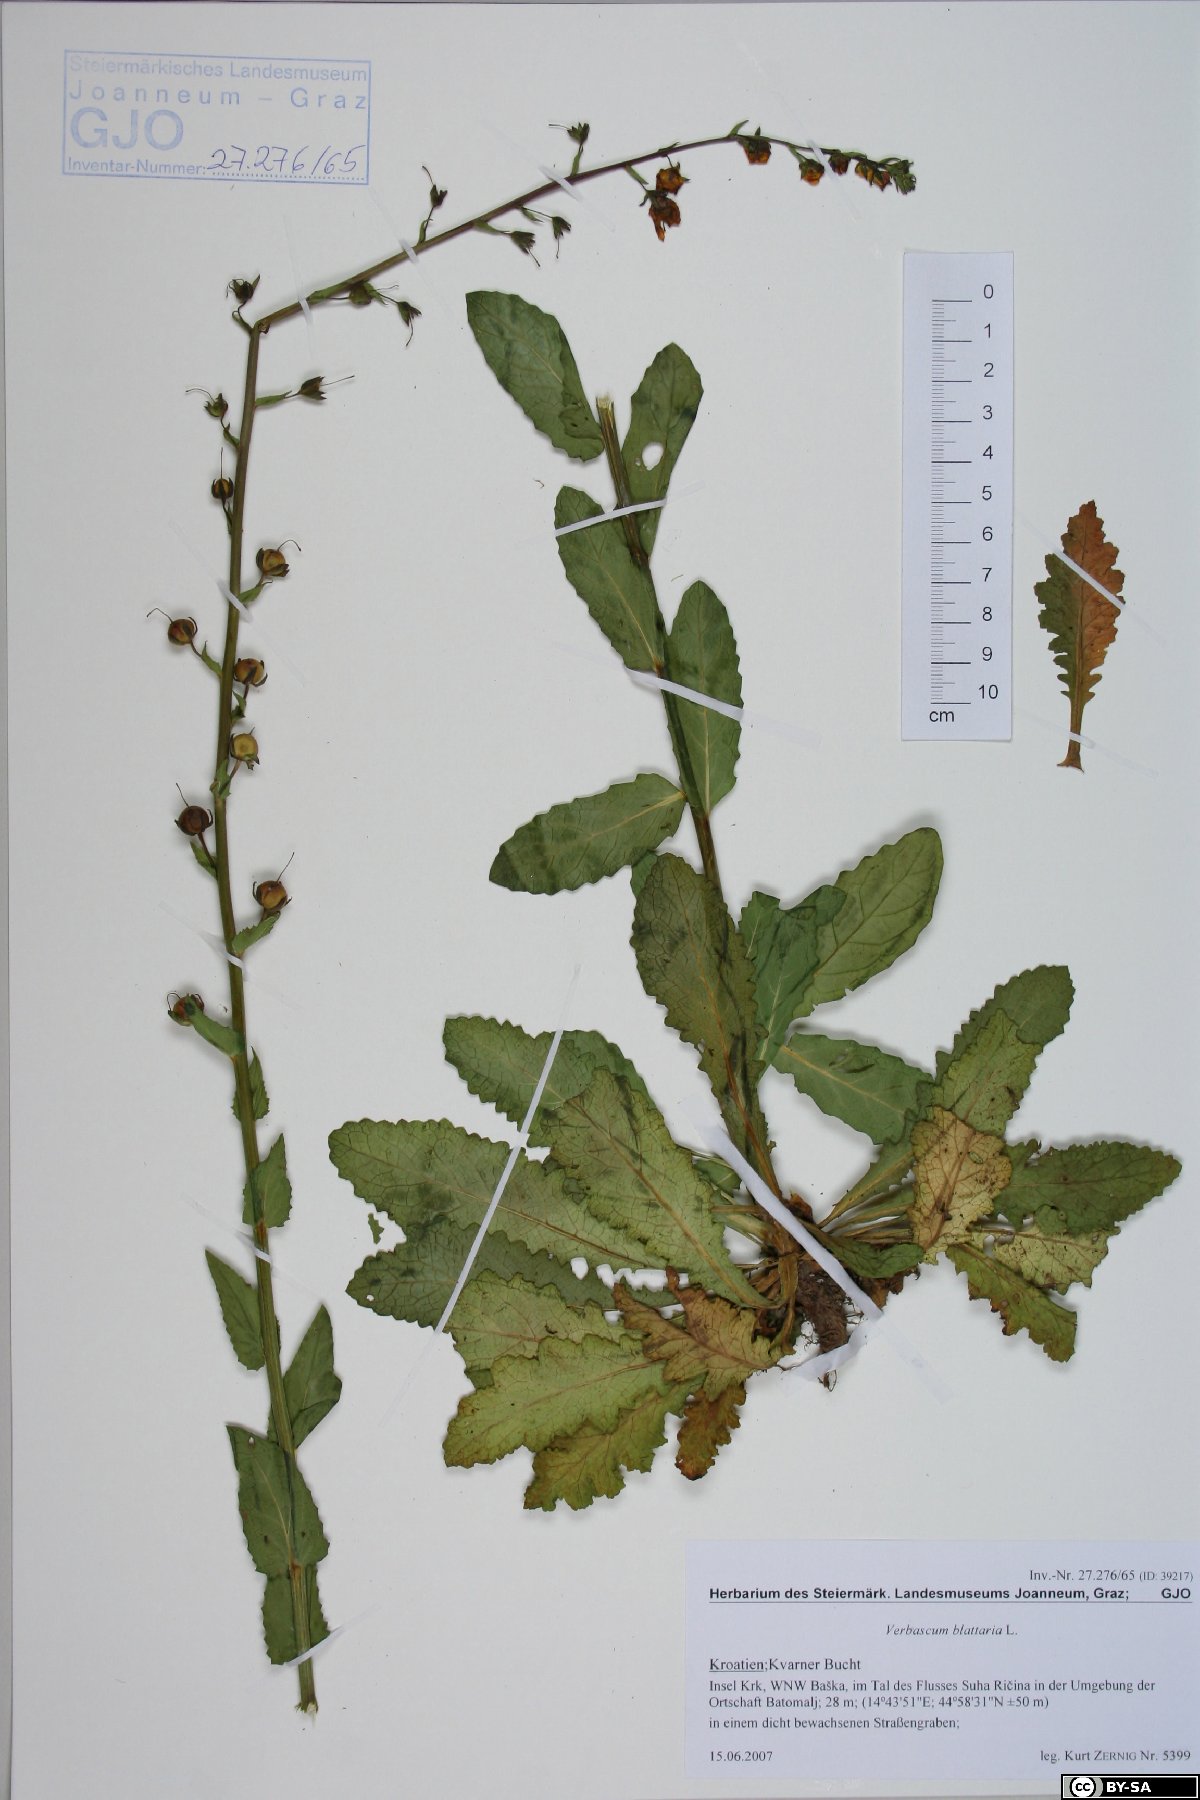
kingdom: Plantae
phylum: Tracheophyta
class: Magnoliopsida
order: Lamiales
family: Scrophulariaceae
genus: Verbascum
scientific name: Verbascum blattaria
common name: Moth mullein
